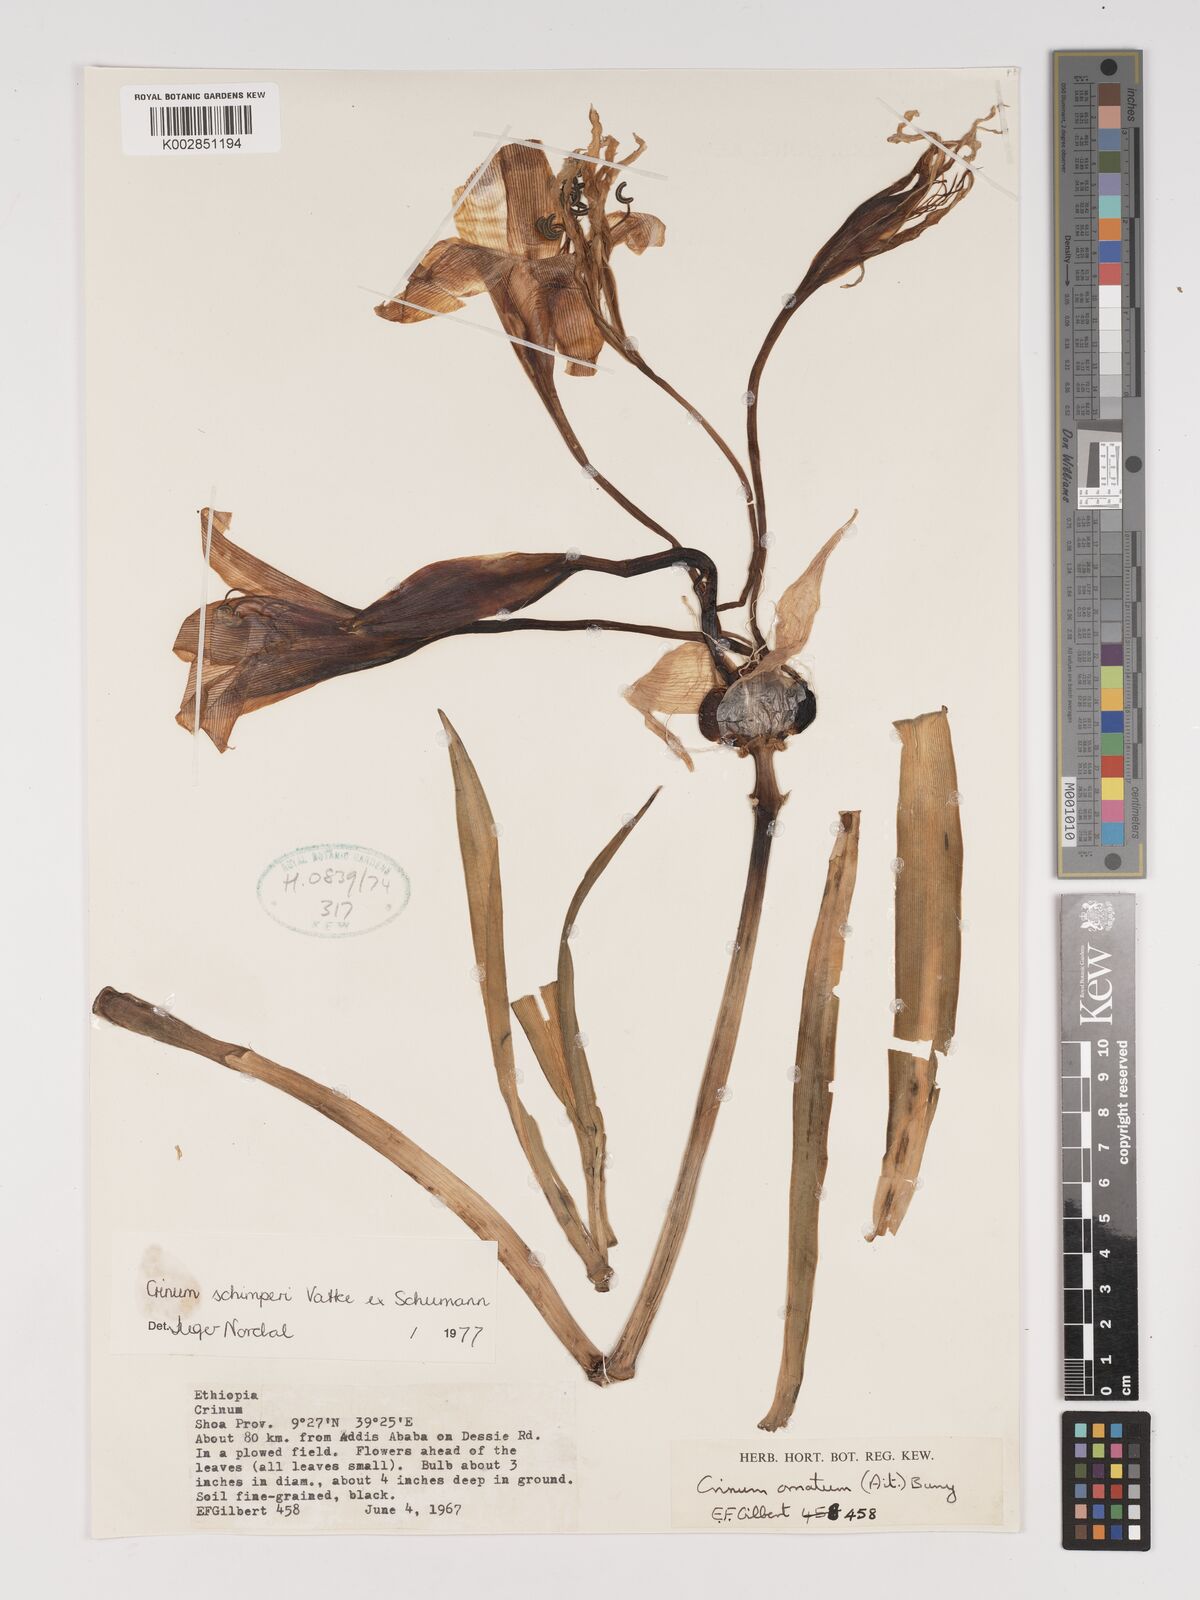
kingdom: Plantae
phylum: Tracheophyta
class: Liliopsida
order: Asparagales
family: Amaryllidaceae
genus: Crinum
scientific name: Crinum abyssinicum
